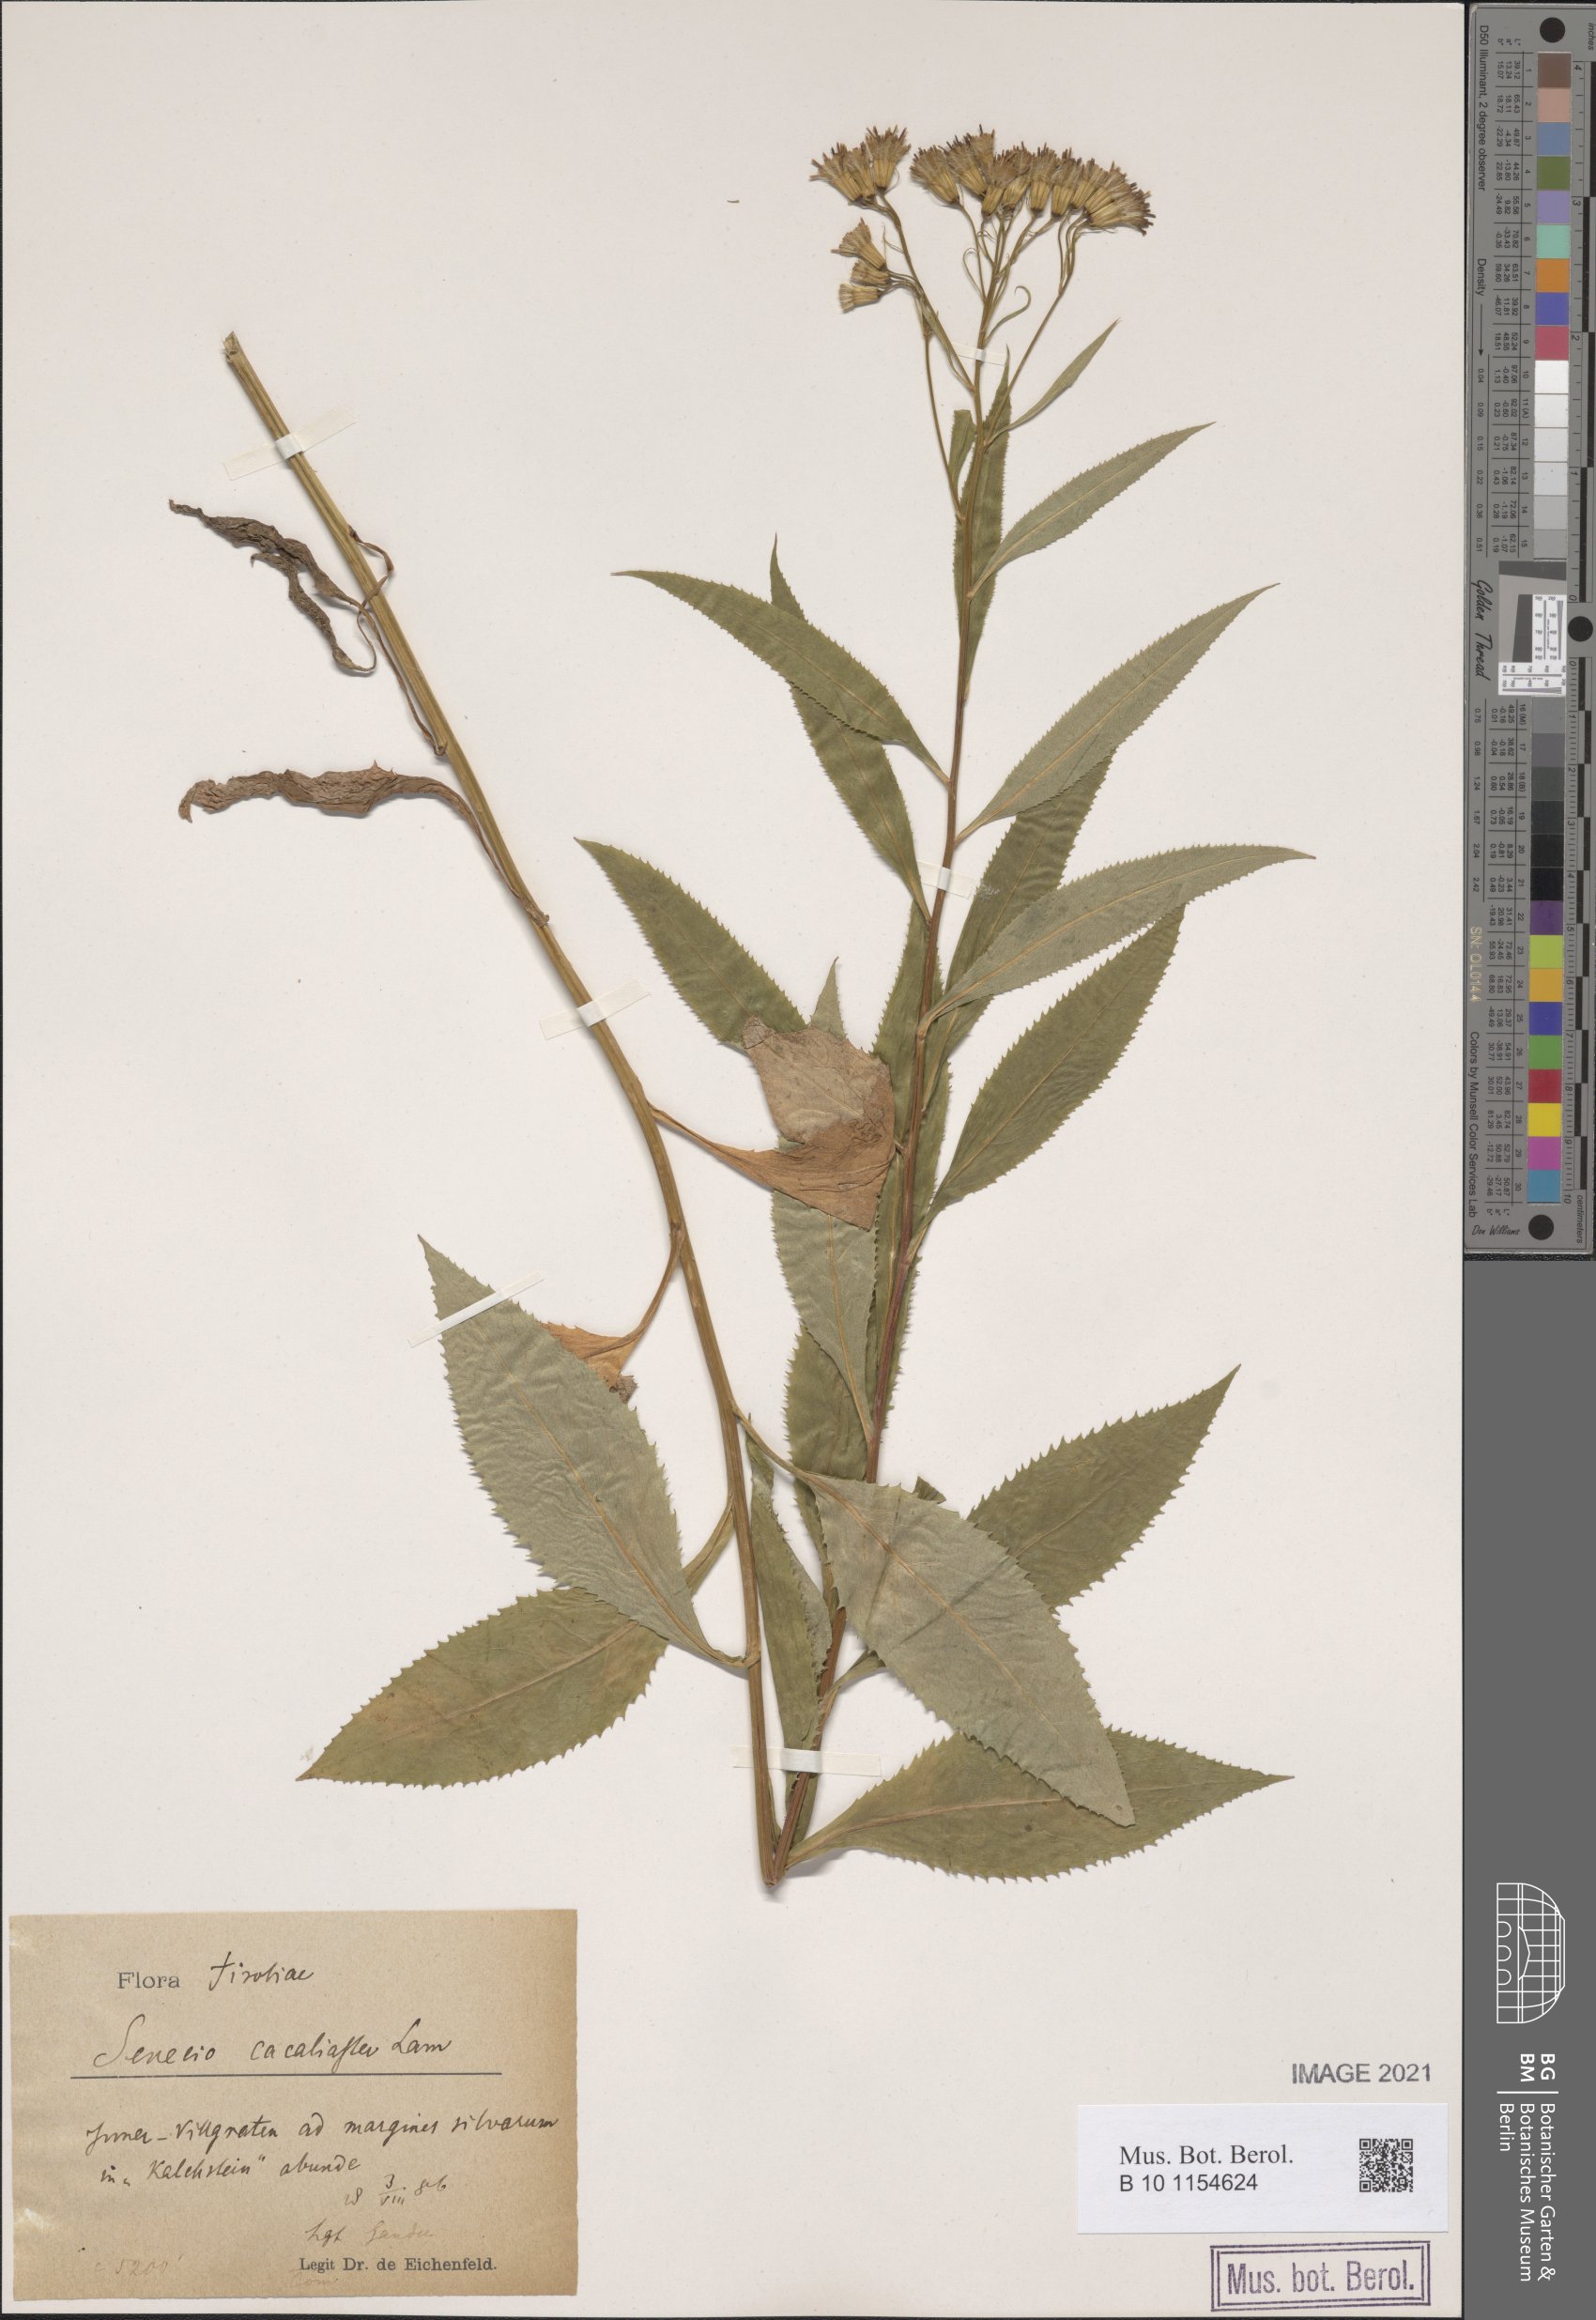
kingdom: Plantae
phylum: Tracheophyta
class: Magnoliopsida
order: Asterales
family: Asteraceae
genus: Senecio
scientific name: Senecio cacaliaster
